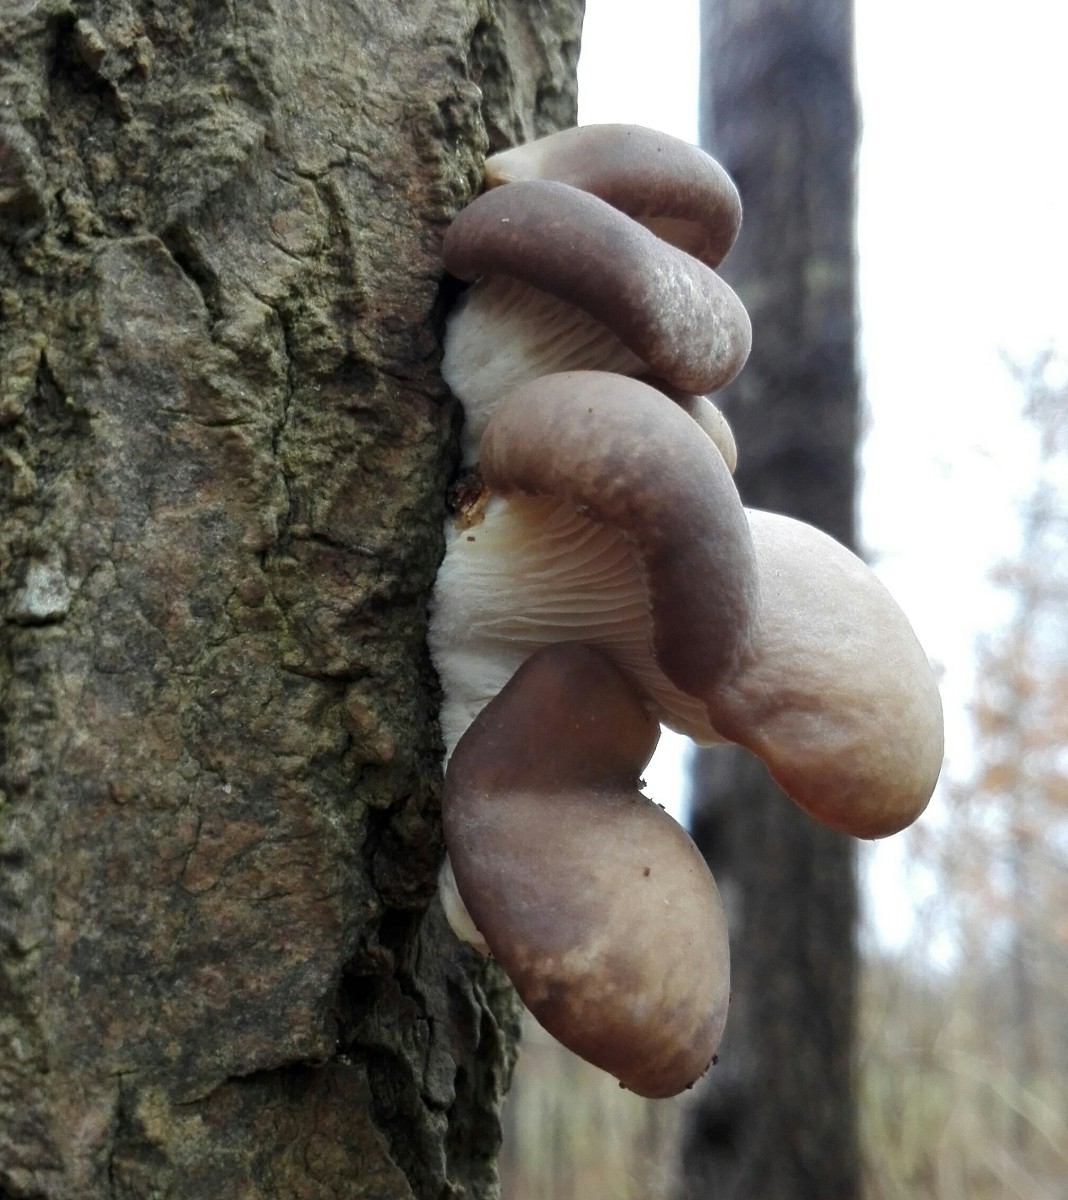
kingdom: Fungi
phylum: Basidiomycota
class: Agaricomycetes
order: Agaricales
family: Pleurotaceae
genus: Pleurotus
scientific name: Pleurotus ostreatus
